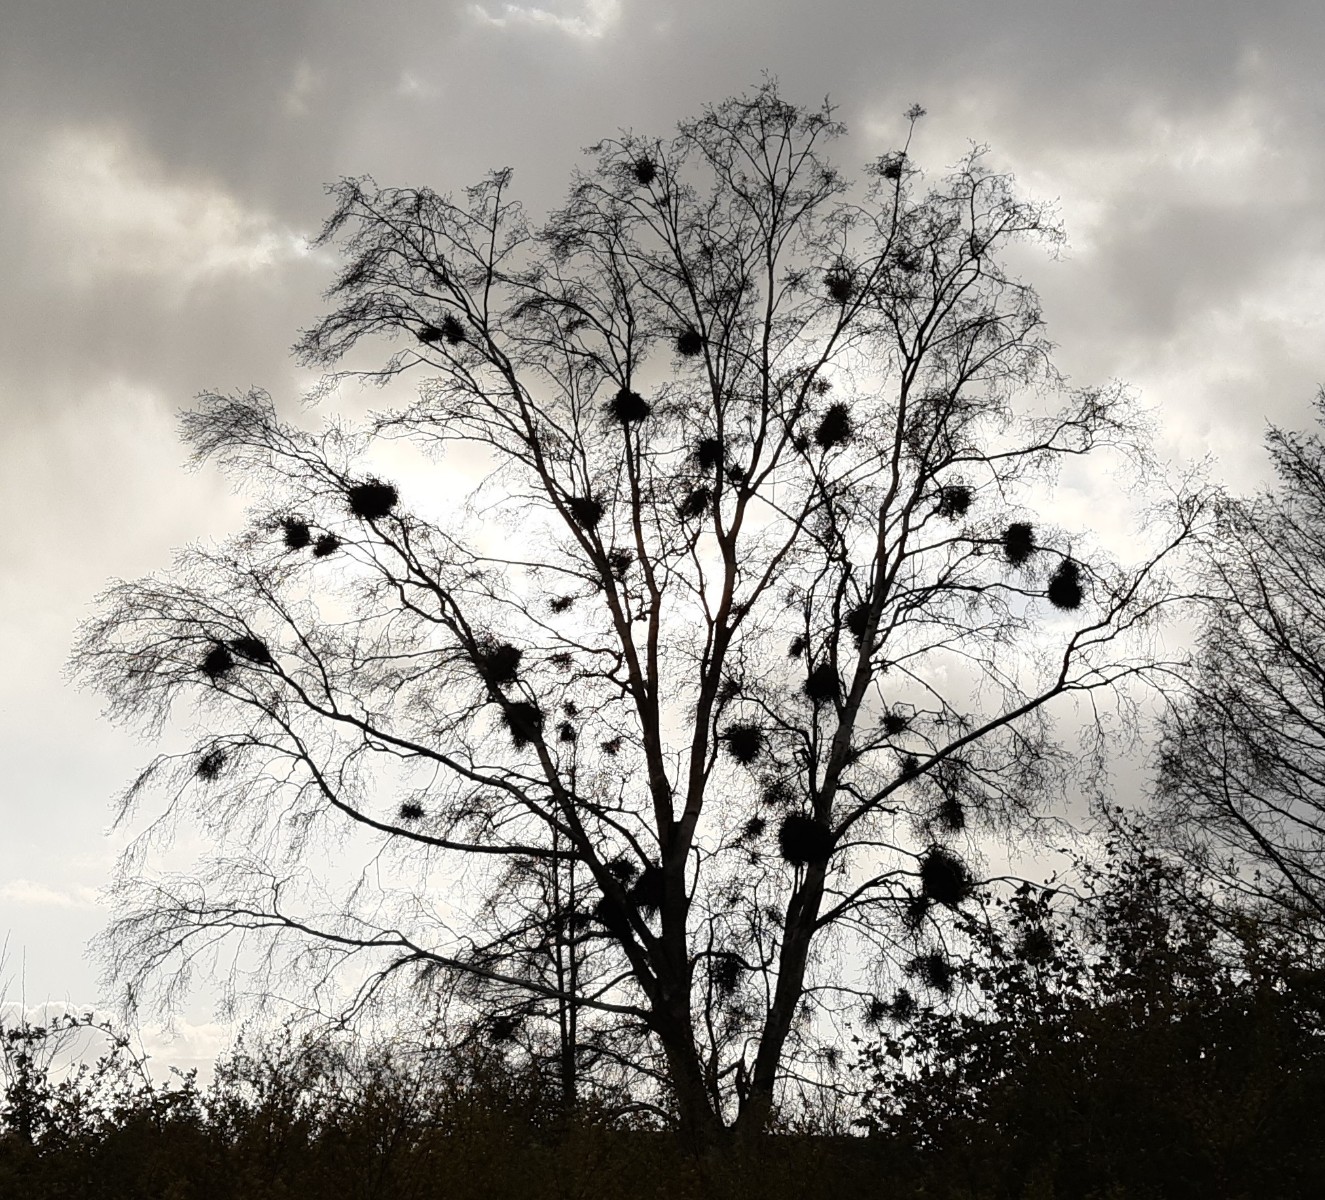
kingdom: Fungi
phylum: Ascomycota
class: Taphrinomycetes
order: Taphrinales
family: Taphrinaceae
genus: Taphrina
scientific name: Taphrina betulina
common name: hekse-sækdug
